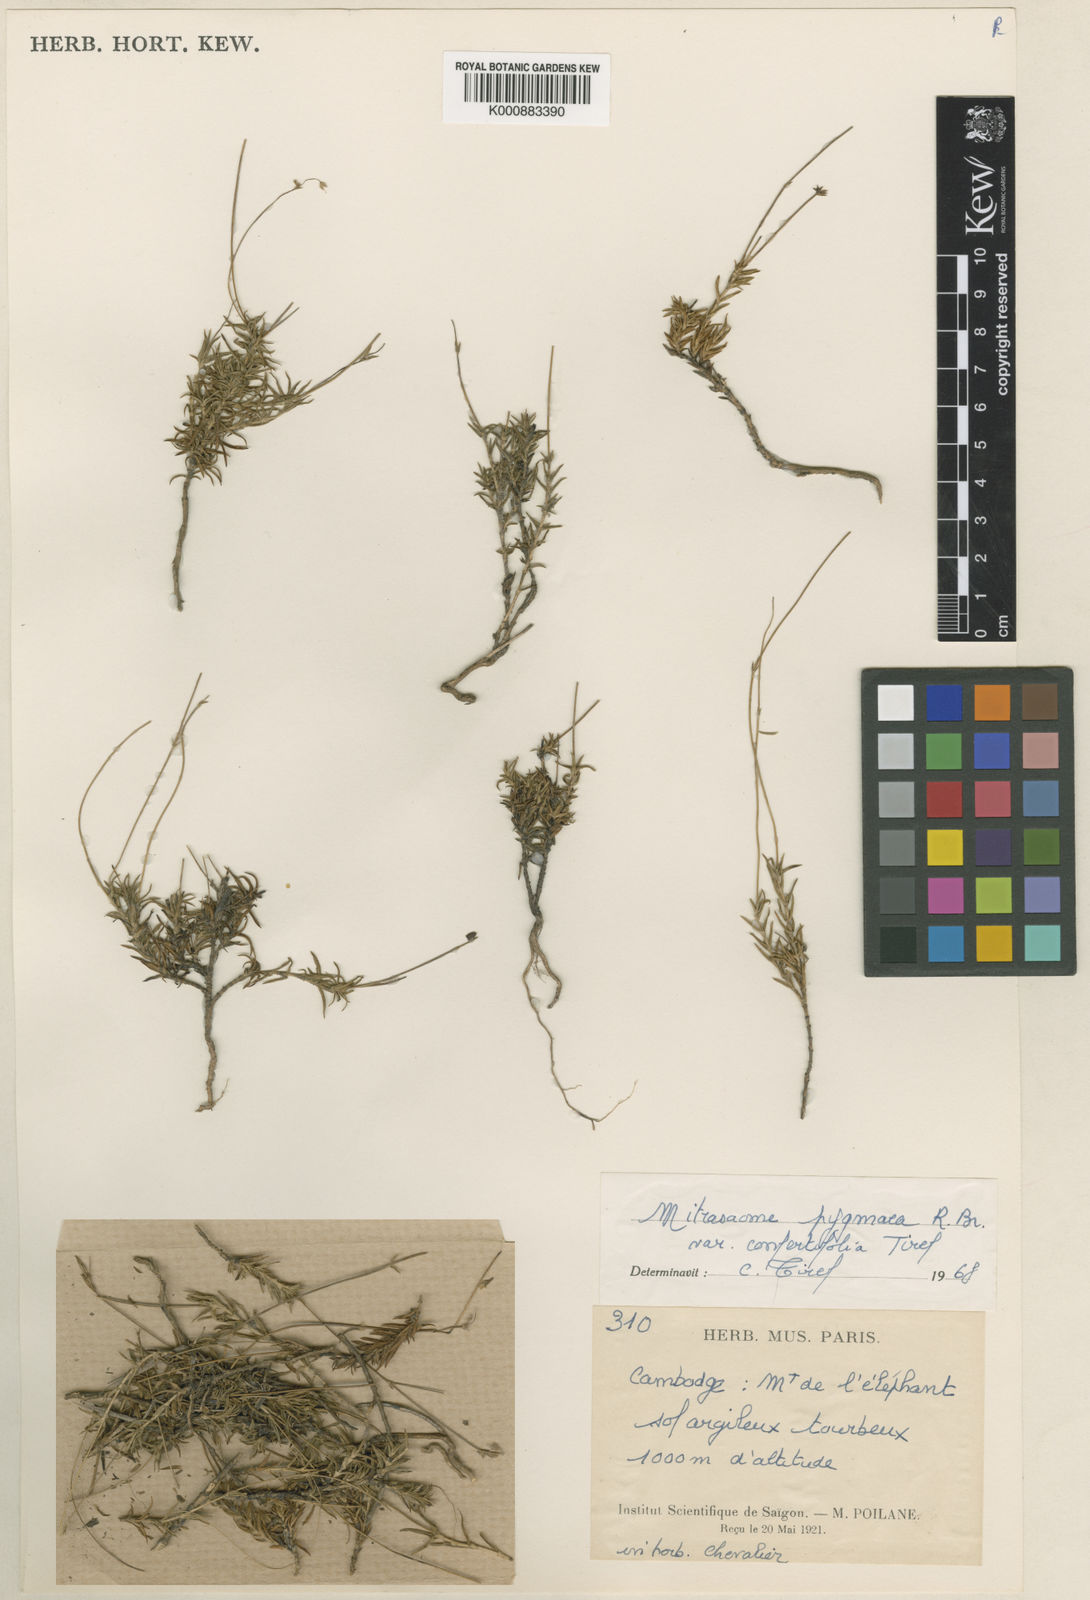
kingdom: Plantae
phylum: Tracheophyta
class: Magnoliopsida
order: Gentianales
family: Loganiaceae
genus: Mitrasacme
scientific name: Mitrasacme pygmaea
